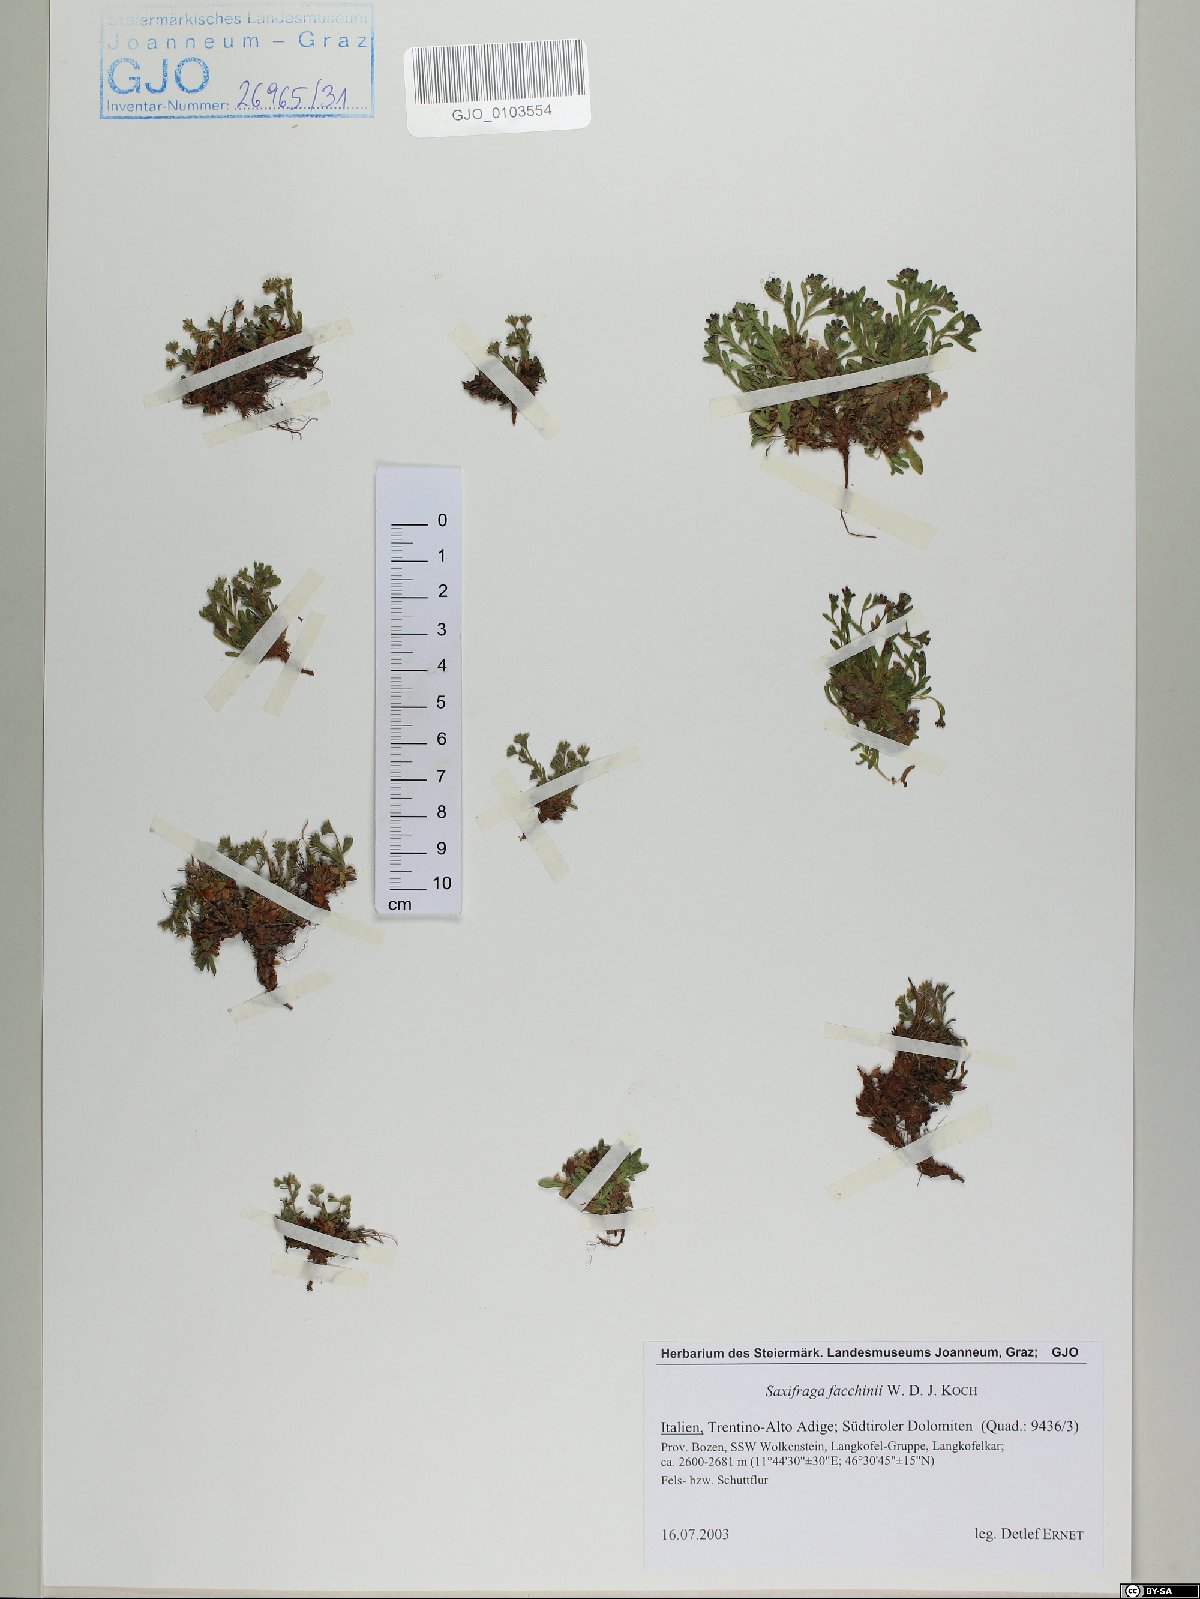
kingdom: Plantae
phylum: Tracheophyta
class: Magnoliopsida
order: Saxifragales
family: Saxifragaceae
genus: Saxifraga
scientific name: Saxifraga facchinii
